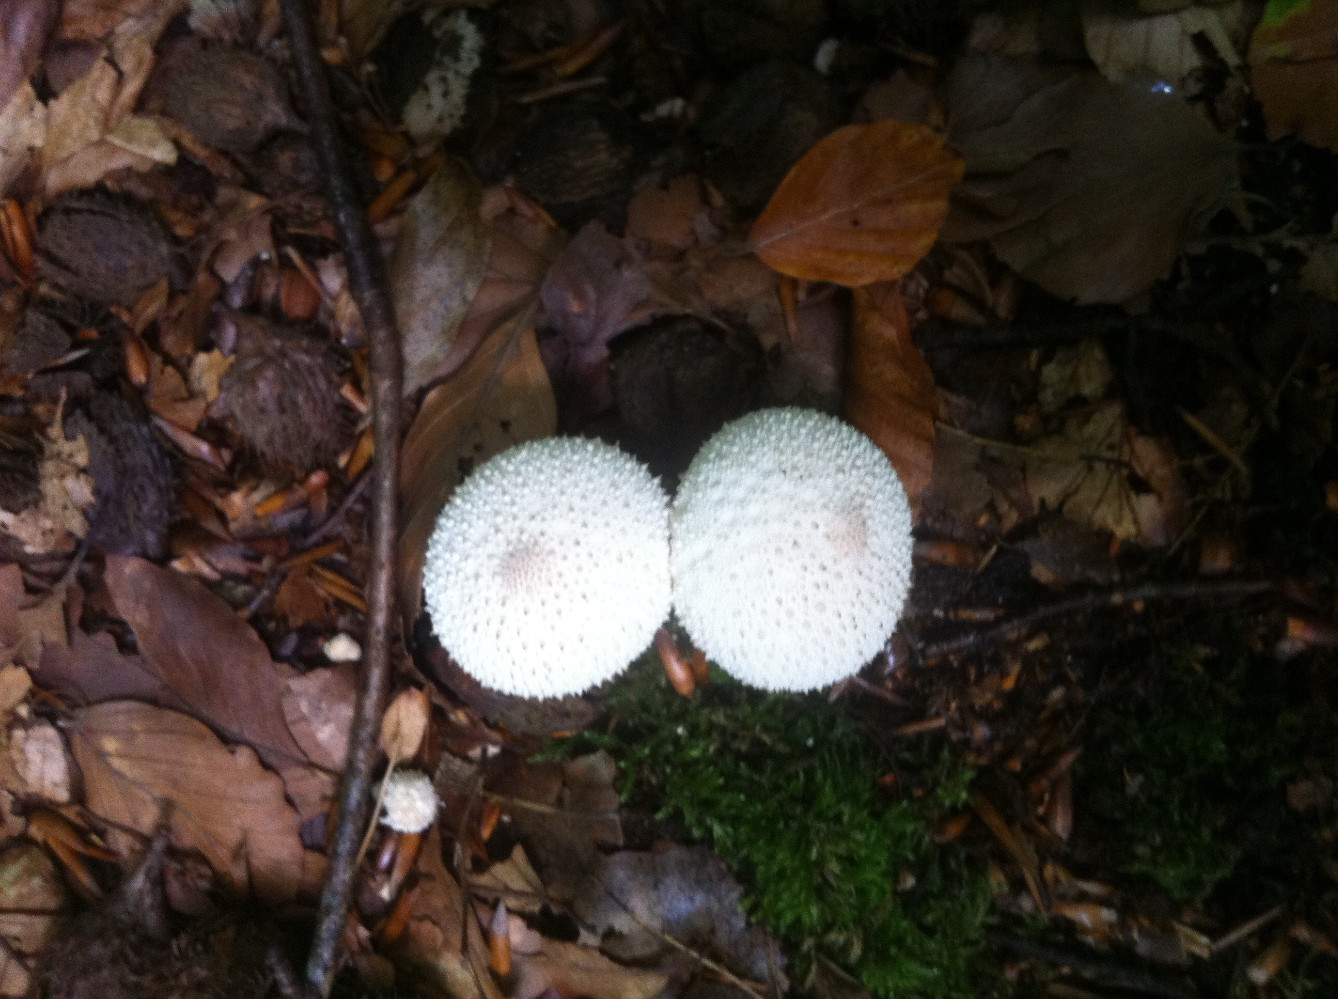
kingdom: Fungi
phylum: Basidiomycota
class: Agaricomycetes
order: Agaricales
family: Lycoperdaceae
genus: Lycoperdon
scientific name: Lycoperdon perlatum
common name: krystal-støvbold
